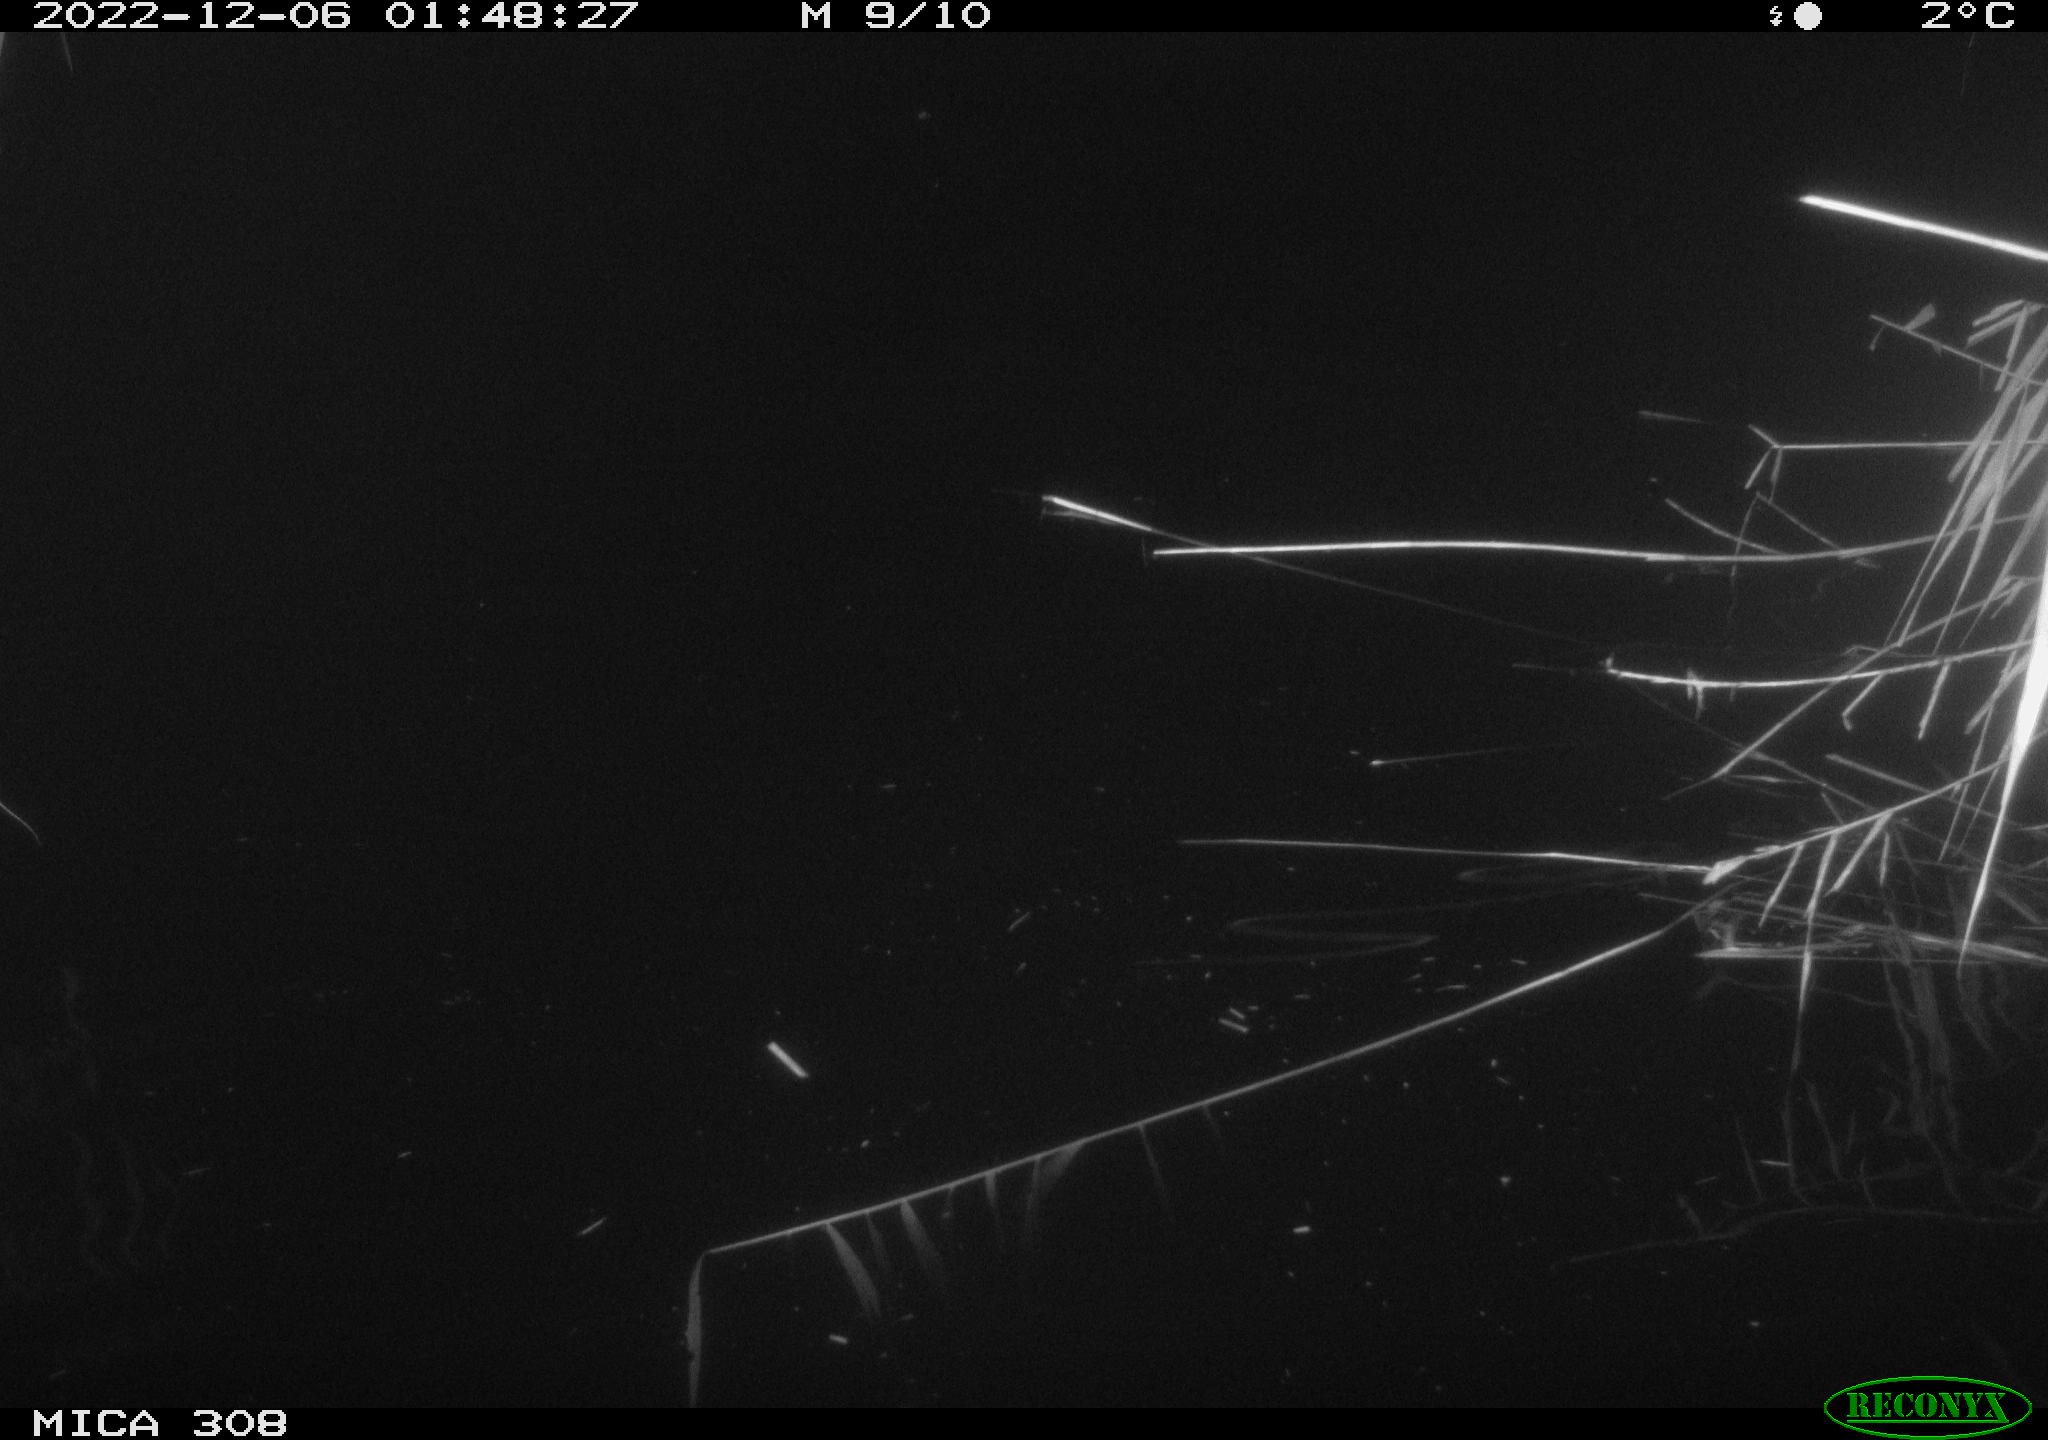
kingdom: Animalia
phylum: Chordata
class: Mammalia
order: Rodentia
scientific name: Rodentia
